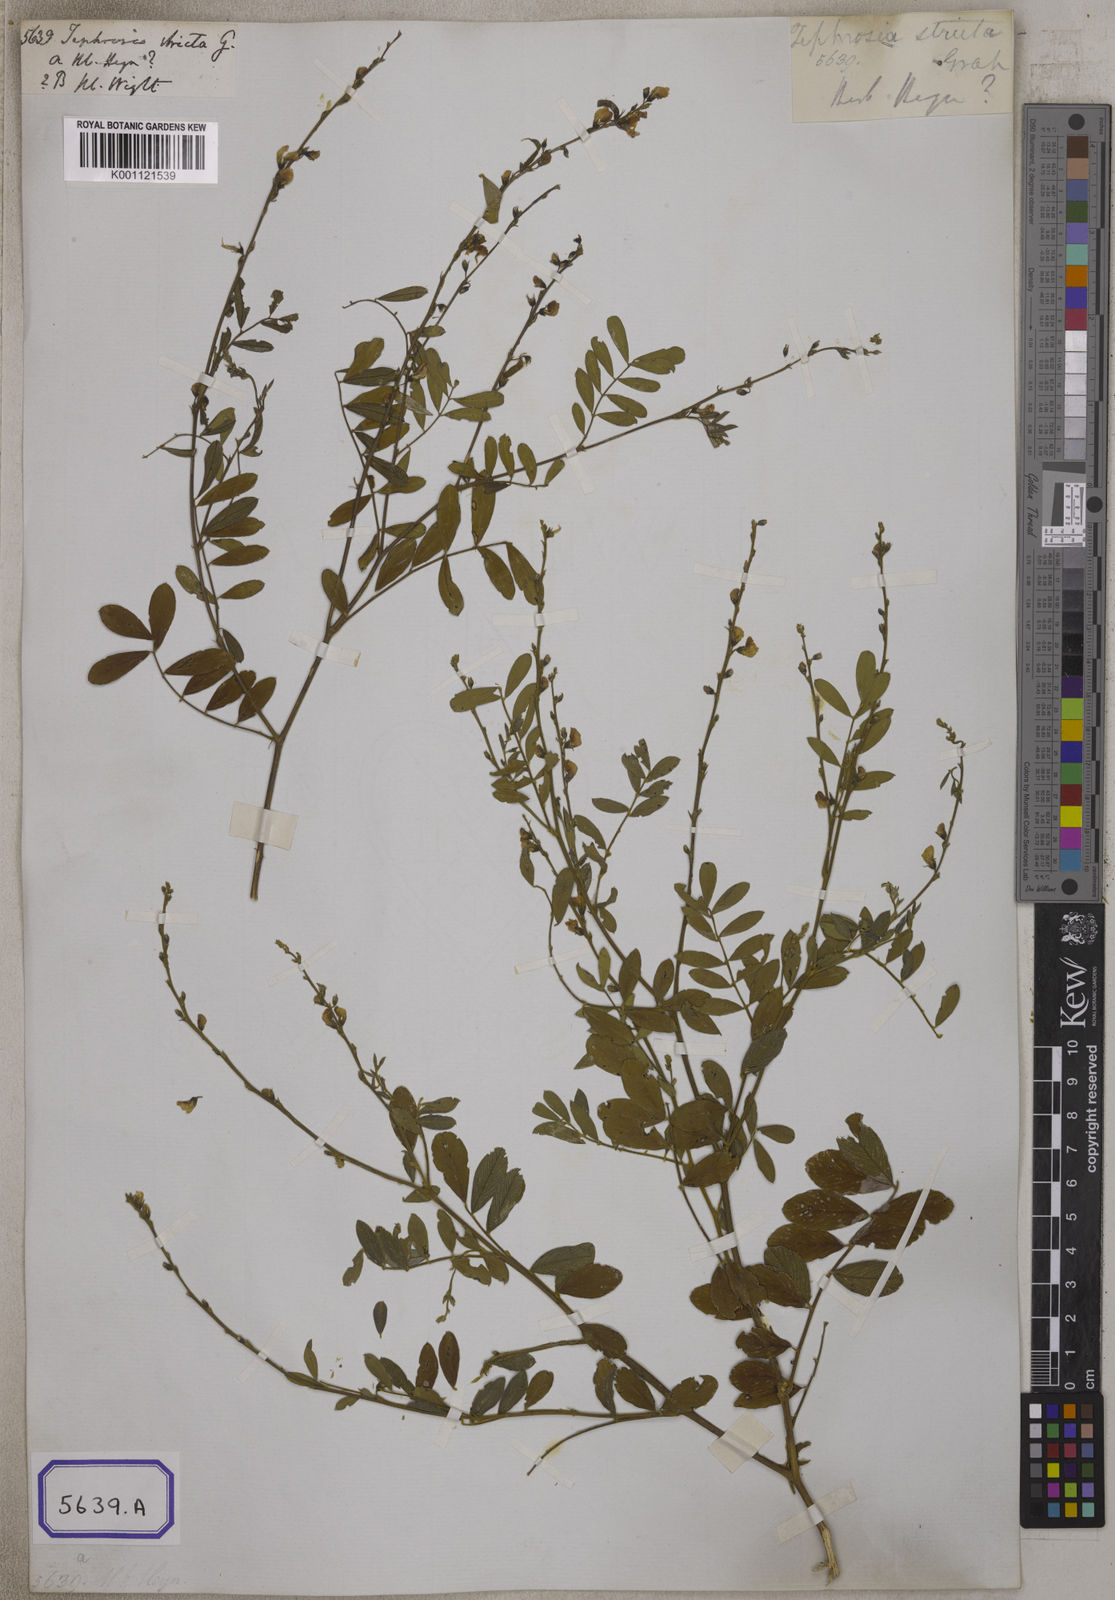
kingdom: Plantae
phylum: Tracheophyta
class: Magnoliopsida
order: Fabales
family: Fabaceae
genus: Tephrosia
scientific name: Tephrosia purpurea
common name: Fishpoison
